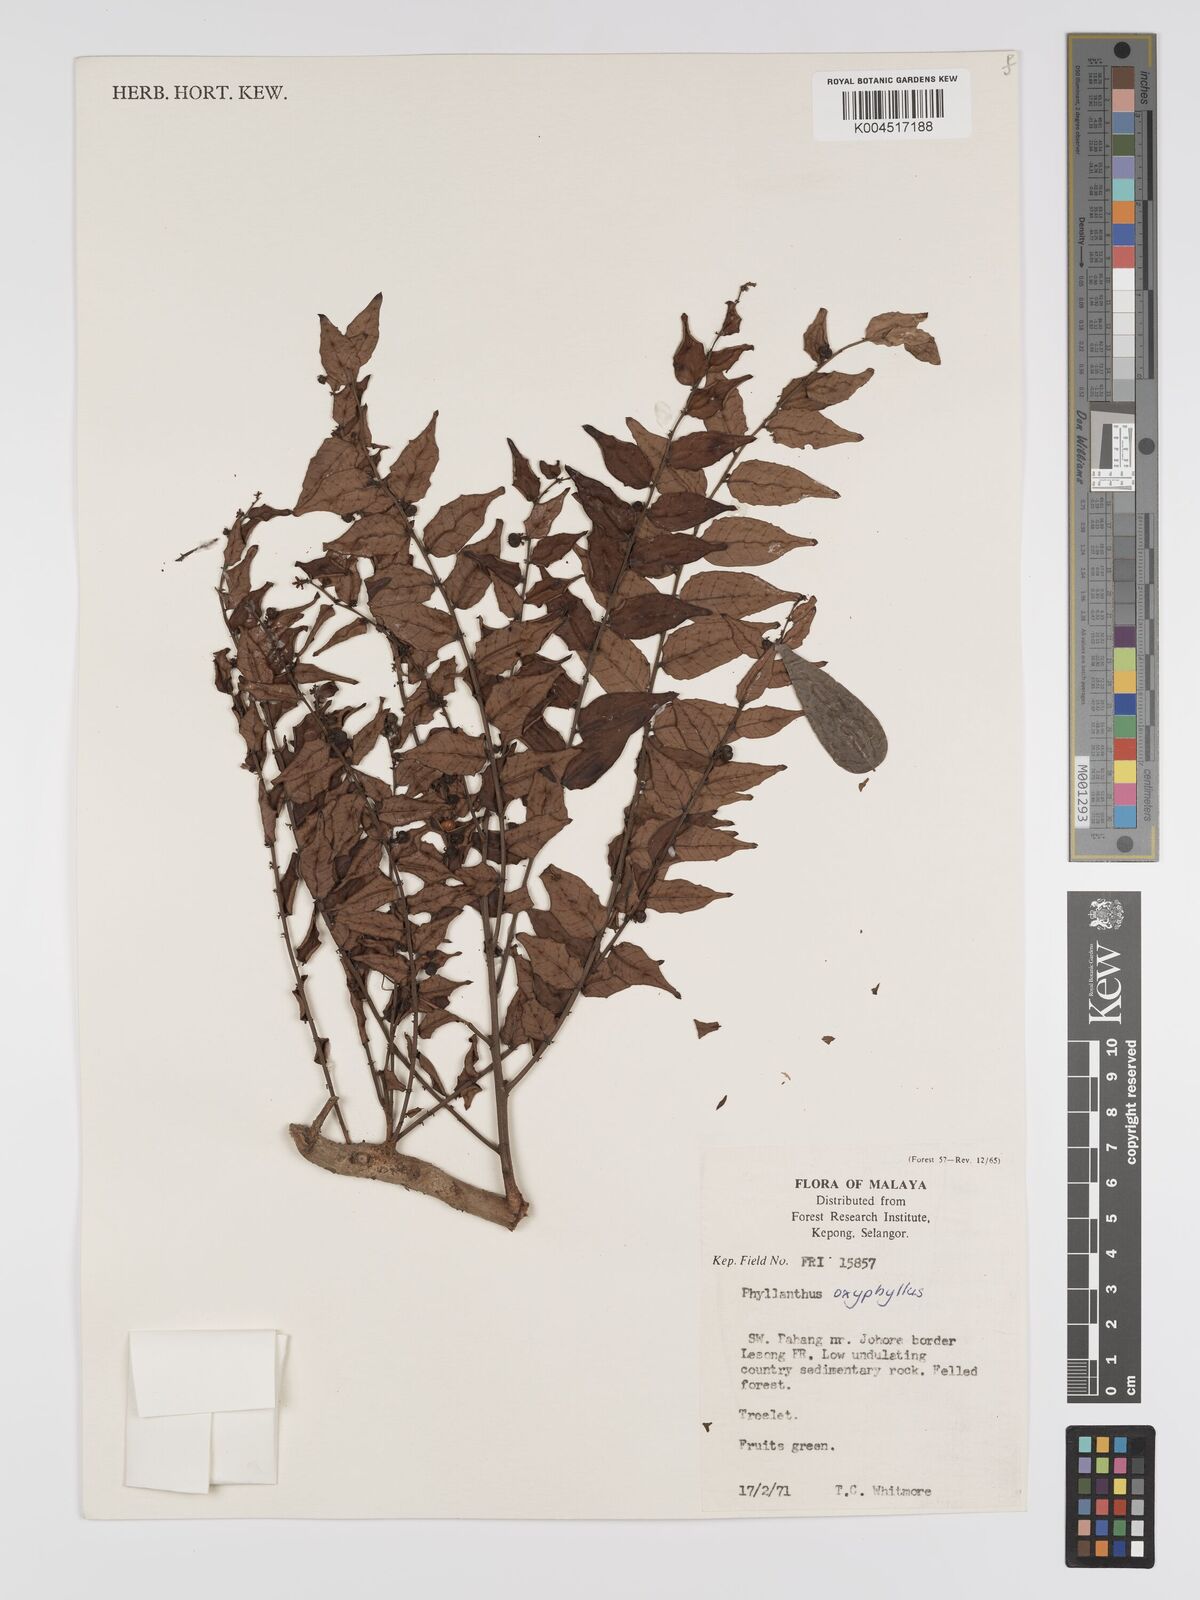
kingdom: Plantae
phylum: Tracheophyta
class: Magnoliopsida
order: Malpighiales
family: Phyllanthaceae
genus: Phyllanthus
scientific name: Phyllanthus
